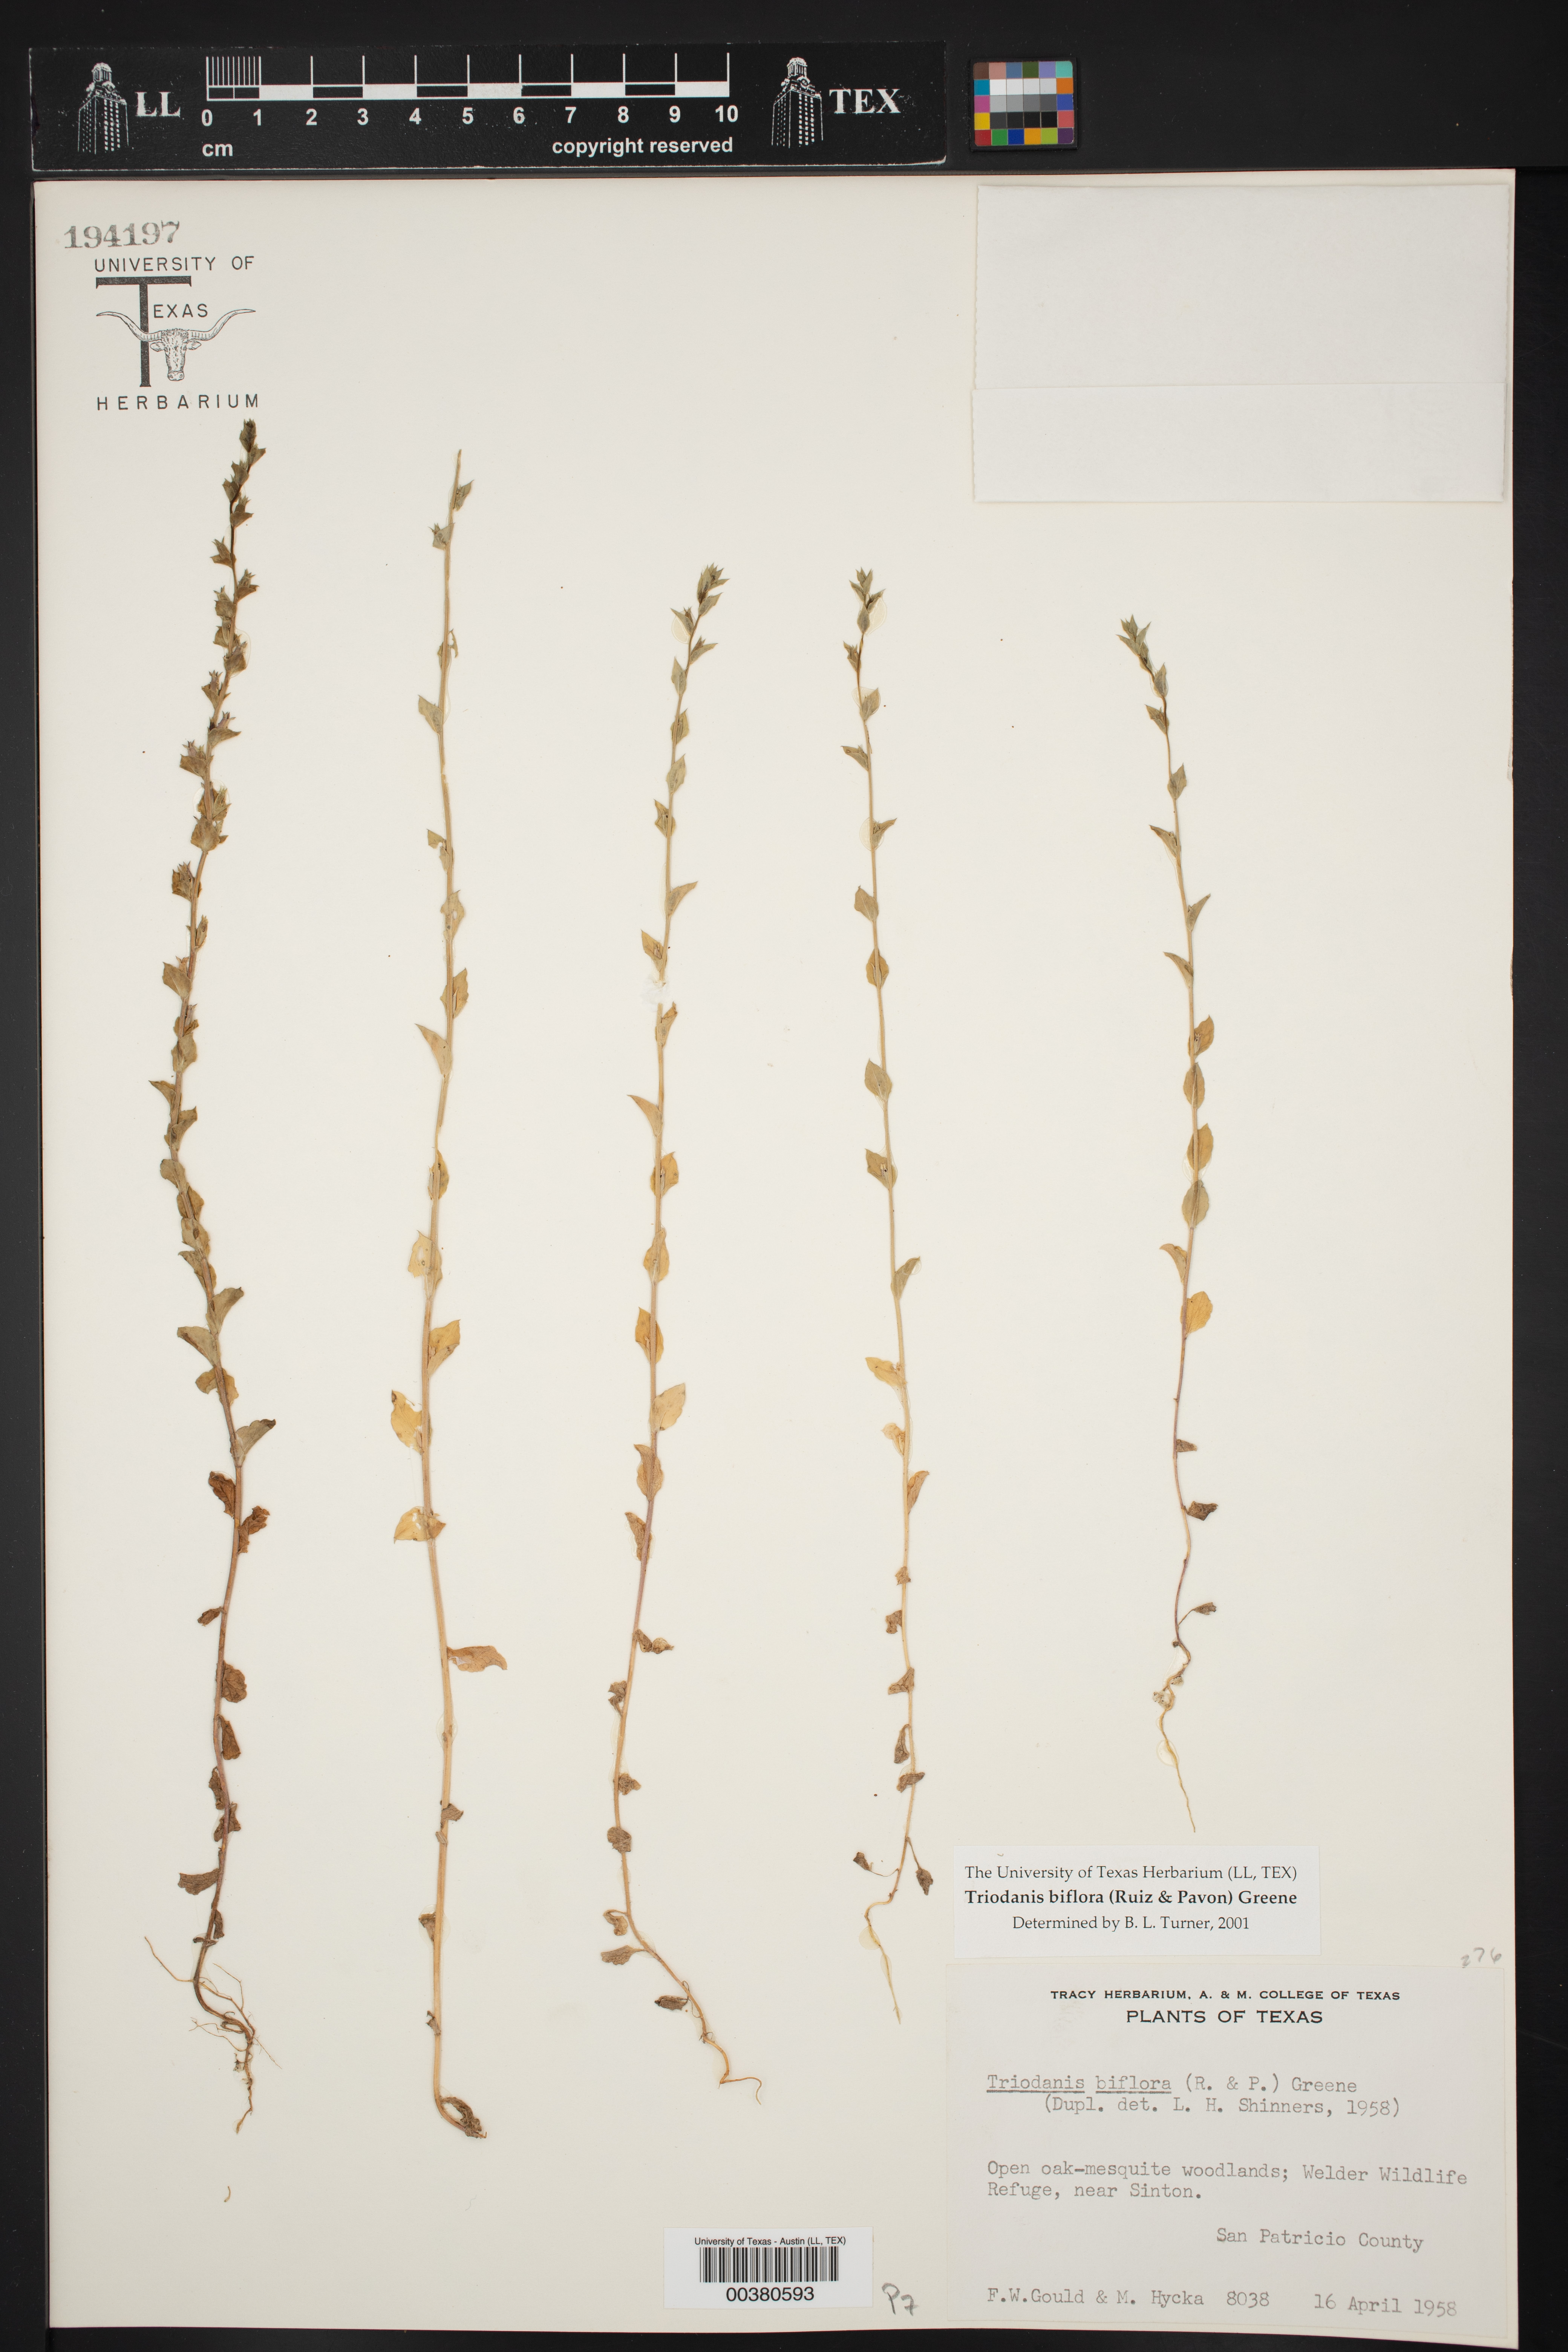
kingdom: Plantae
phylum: Tracheophyta
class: Magnoliopsida
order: Asterales
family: Campanulaceae
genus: Triodanis
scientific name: Triodanis biflora
